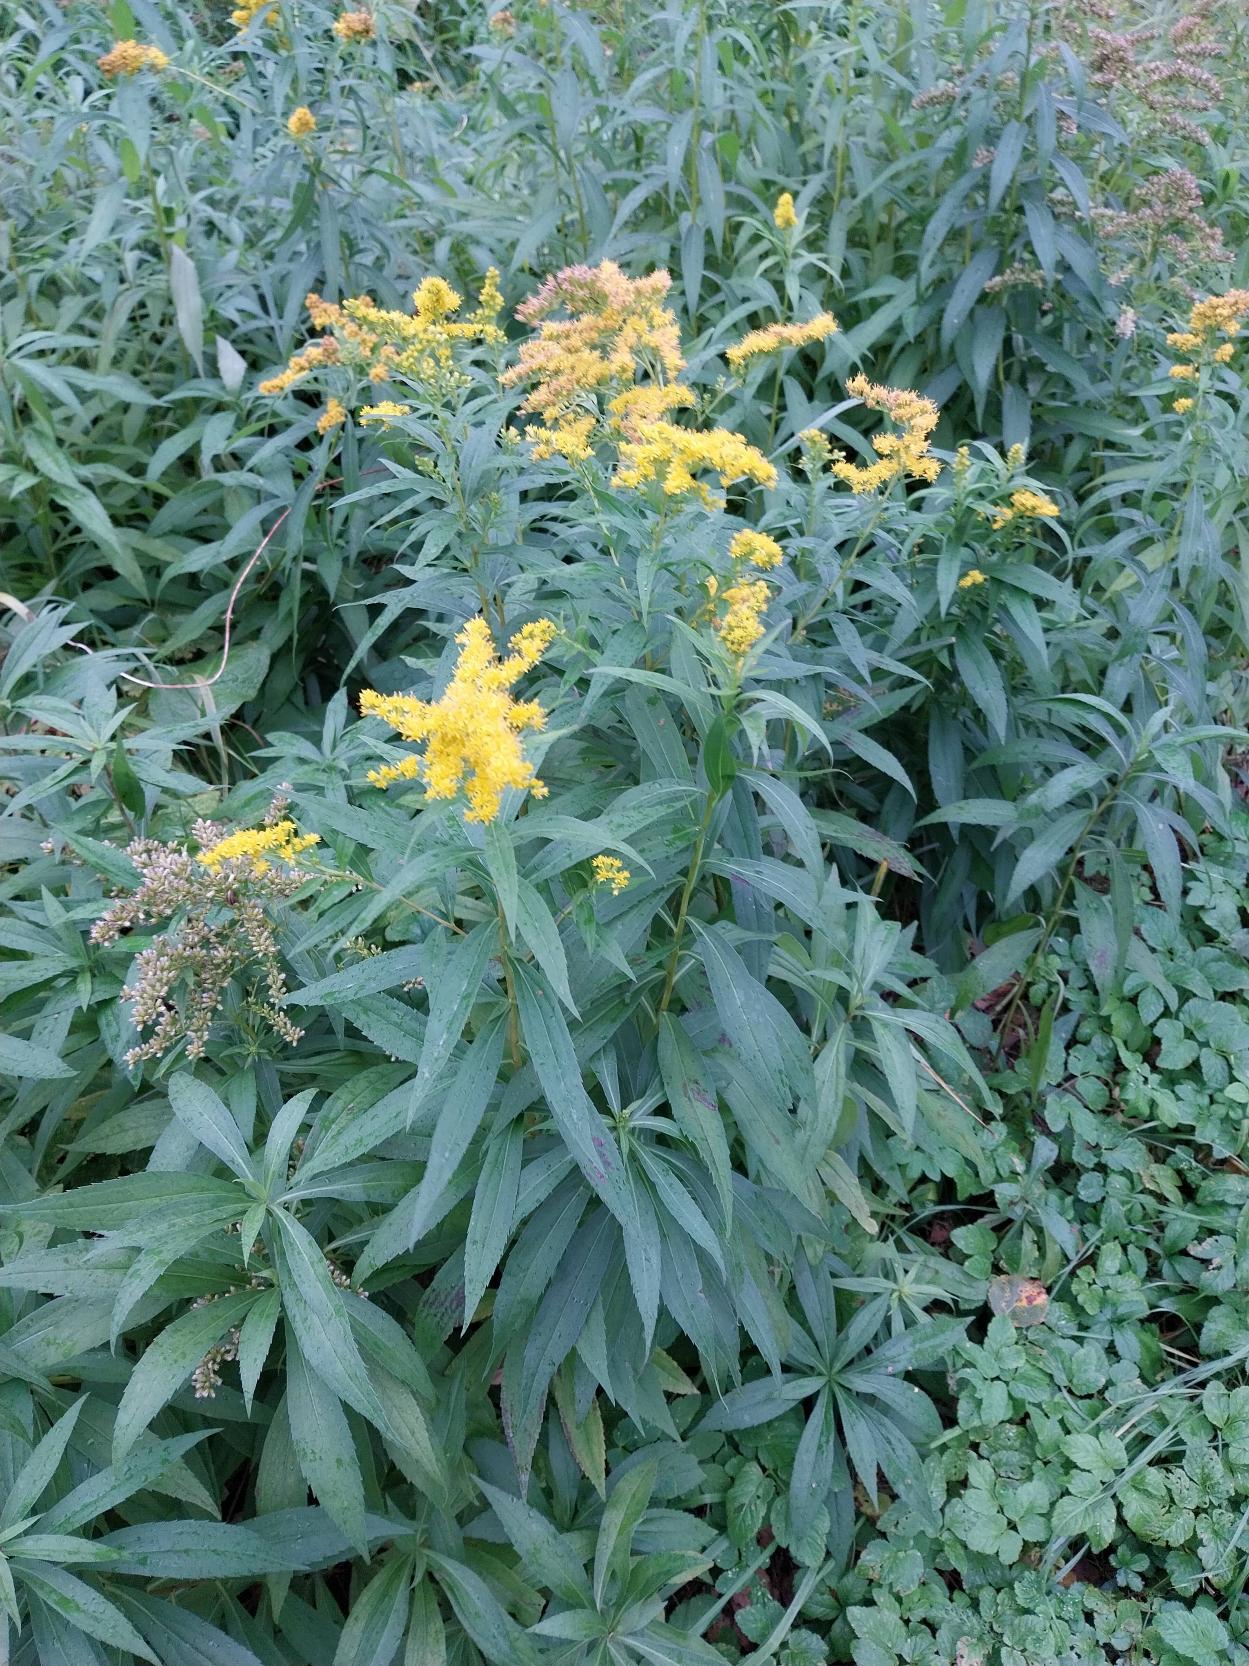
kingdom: Plantae
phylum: Tracheophyta
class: Magnoliopsida
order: Asterales
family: Asteraceae
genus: Solidago
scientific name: Solidago gigantea
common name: Sildig gyldenris
